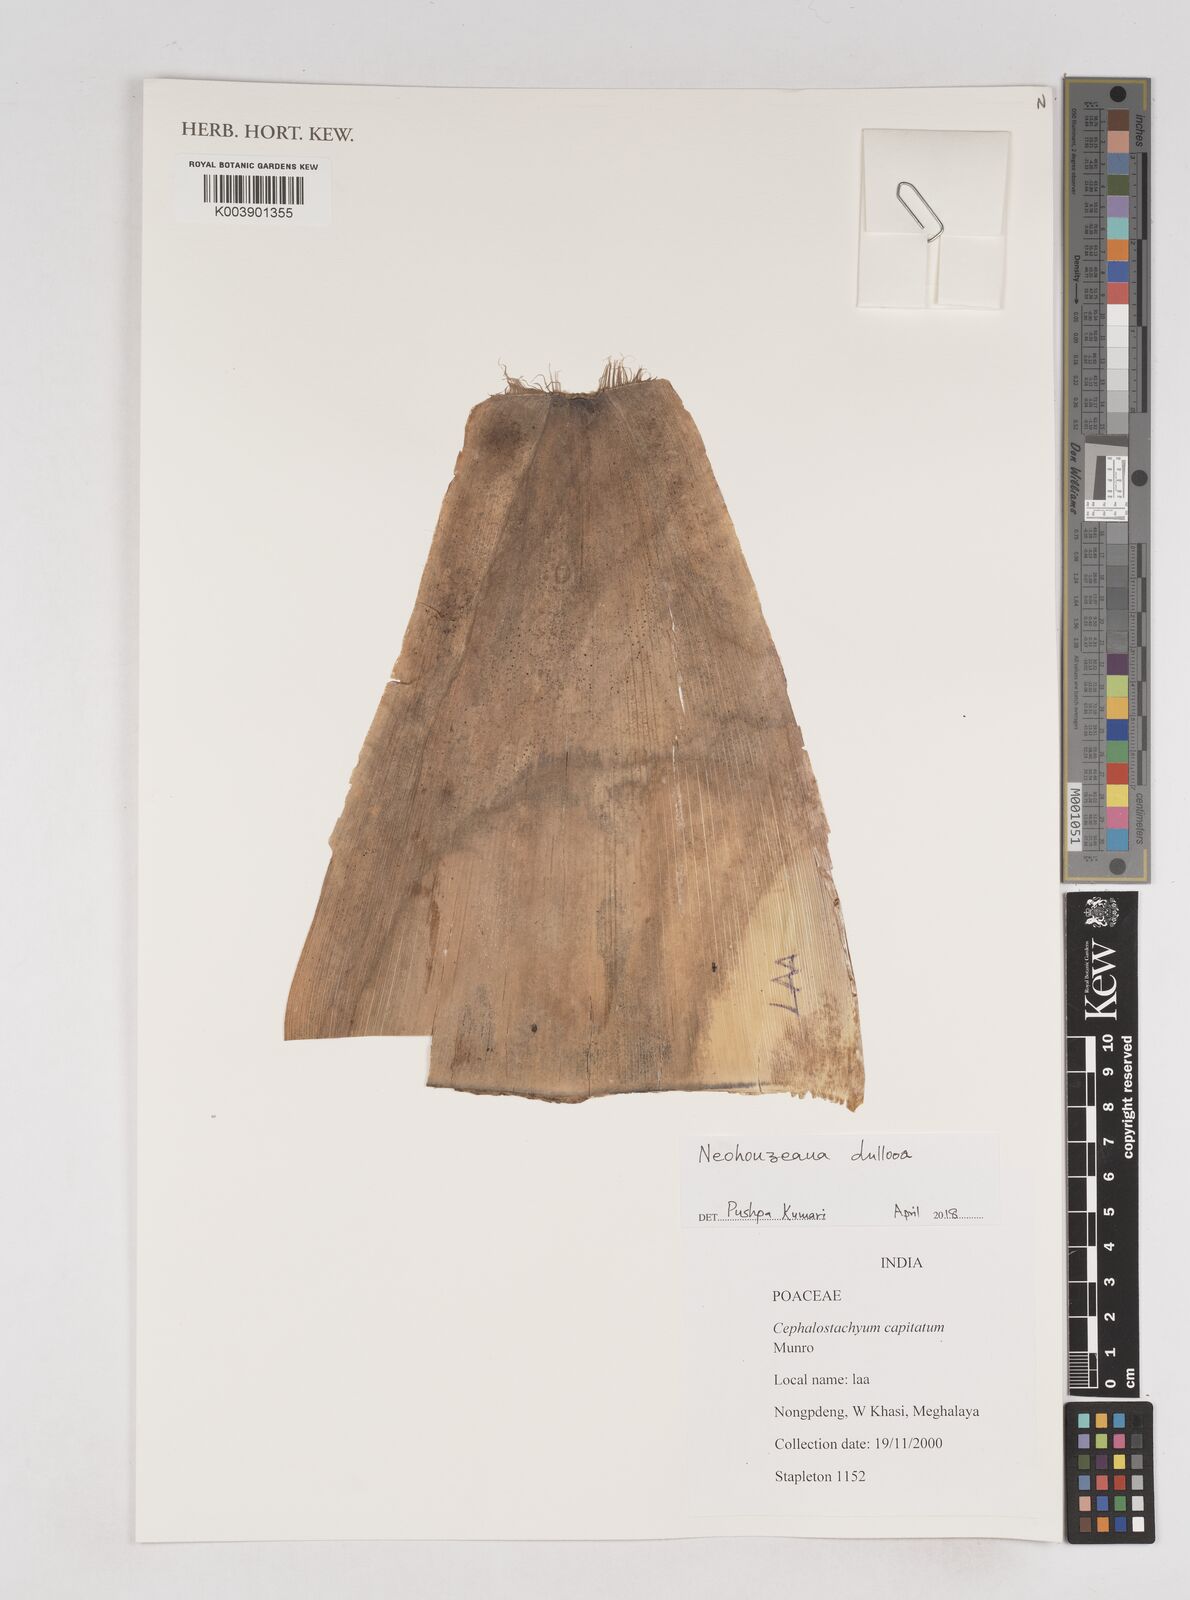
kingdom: Plantae
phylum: Tracheophyta
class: Liliopsida
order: Poales
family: Poaceae
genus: Schizostachyum
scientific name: Schizostachyum dullooa
